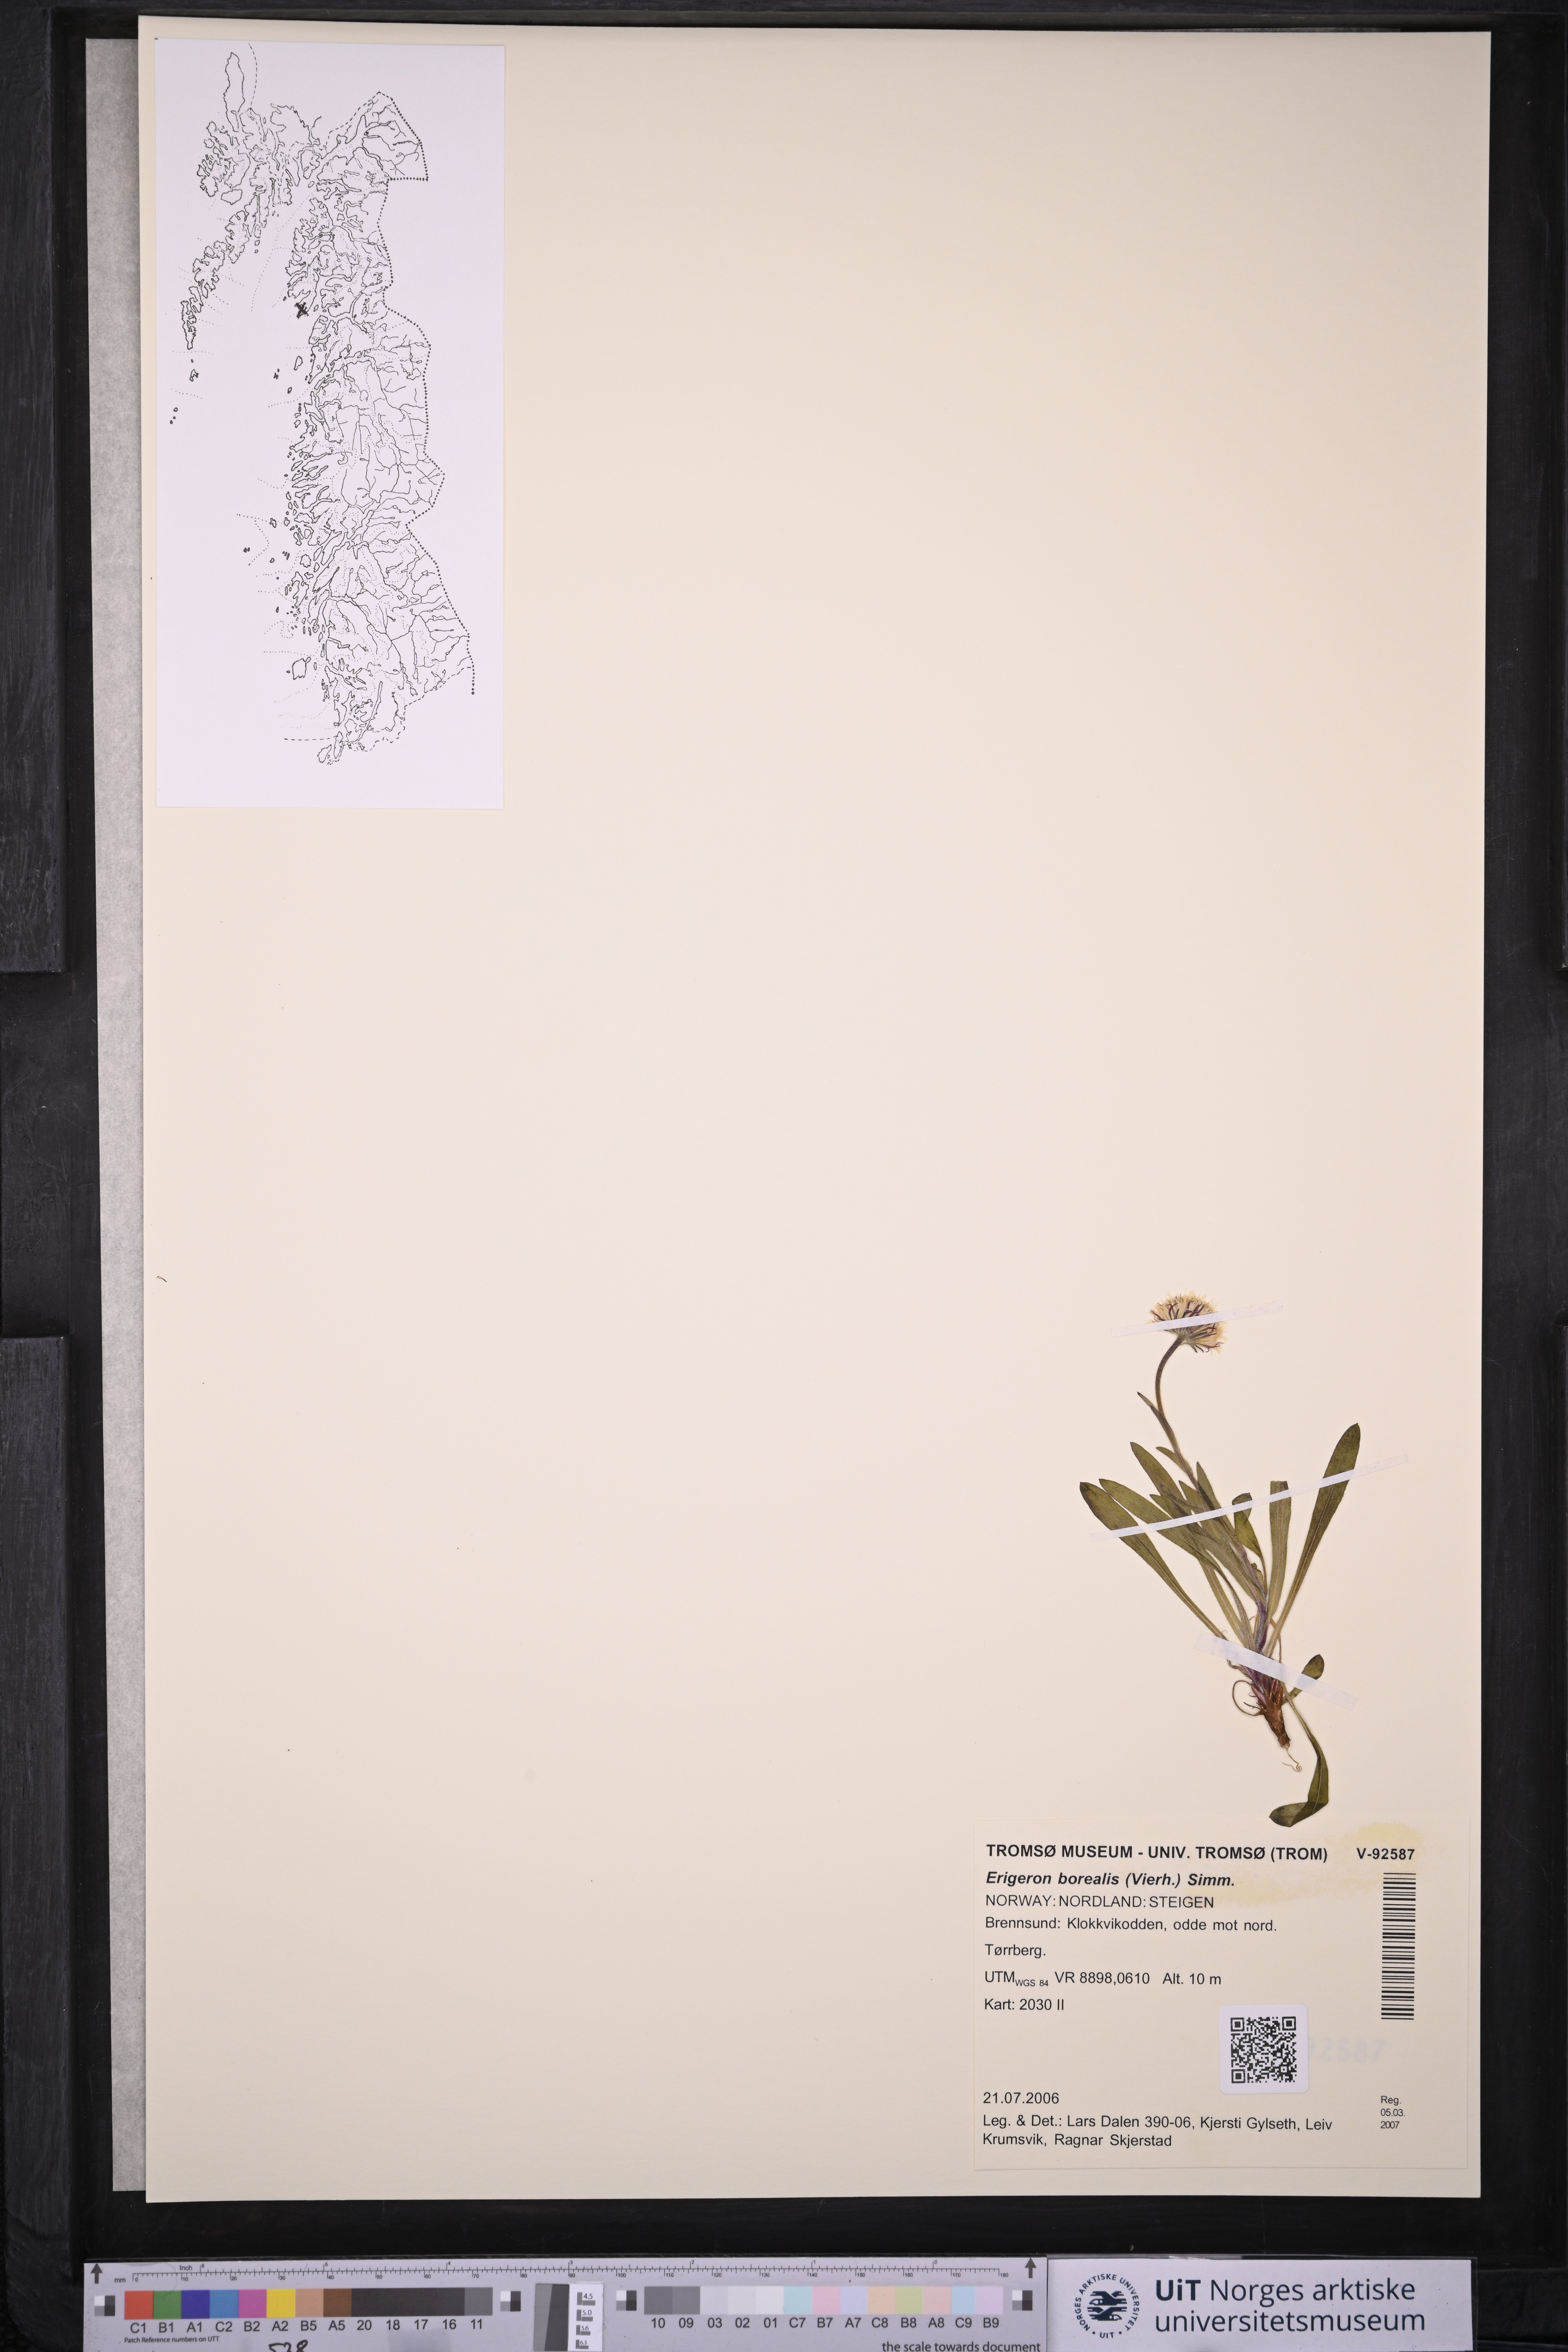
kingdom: Plantae
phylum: Tracheophyta
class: Magnoliopsida
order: Asterales
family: Asteraceae
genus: Erigeron
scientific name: Erigeron borealis
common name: Alpine fleabane
